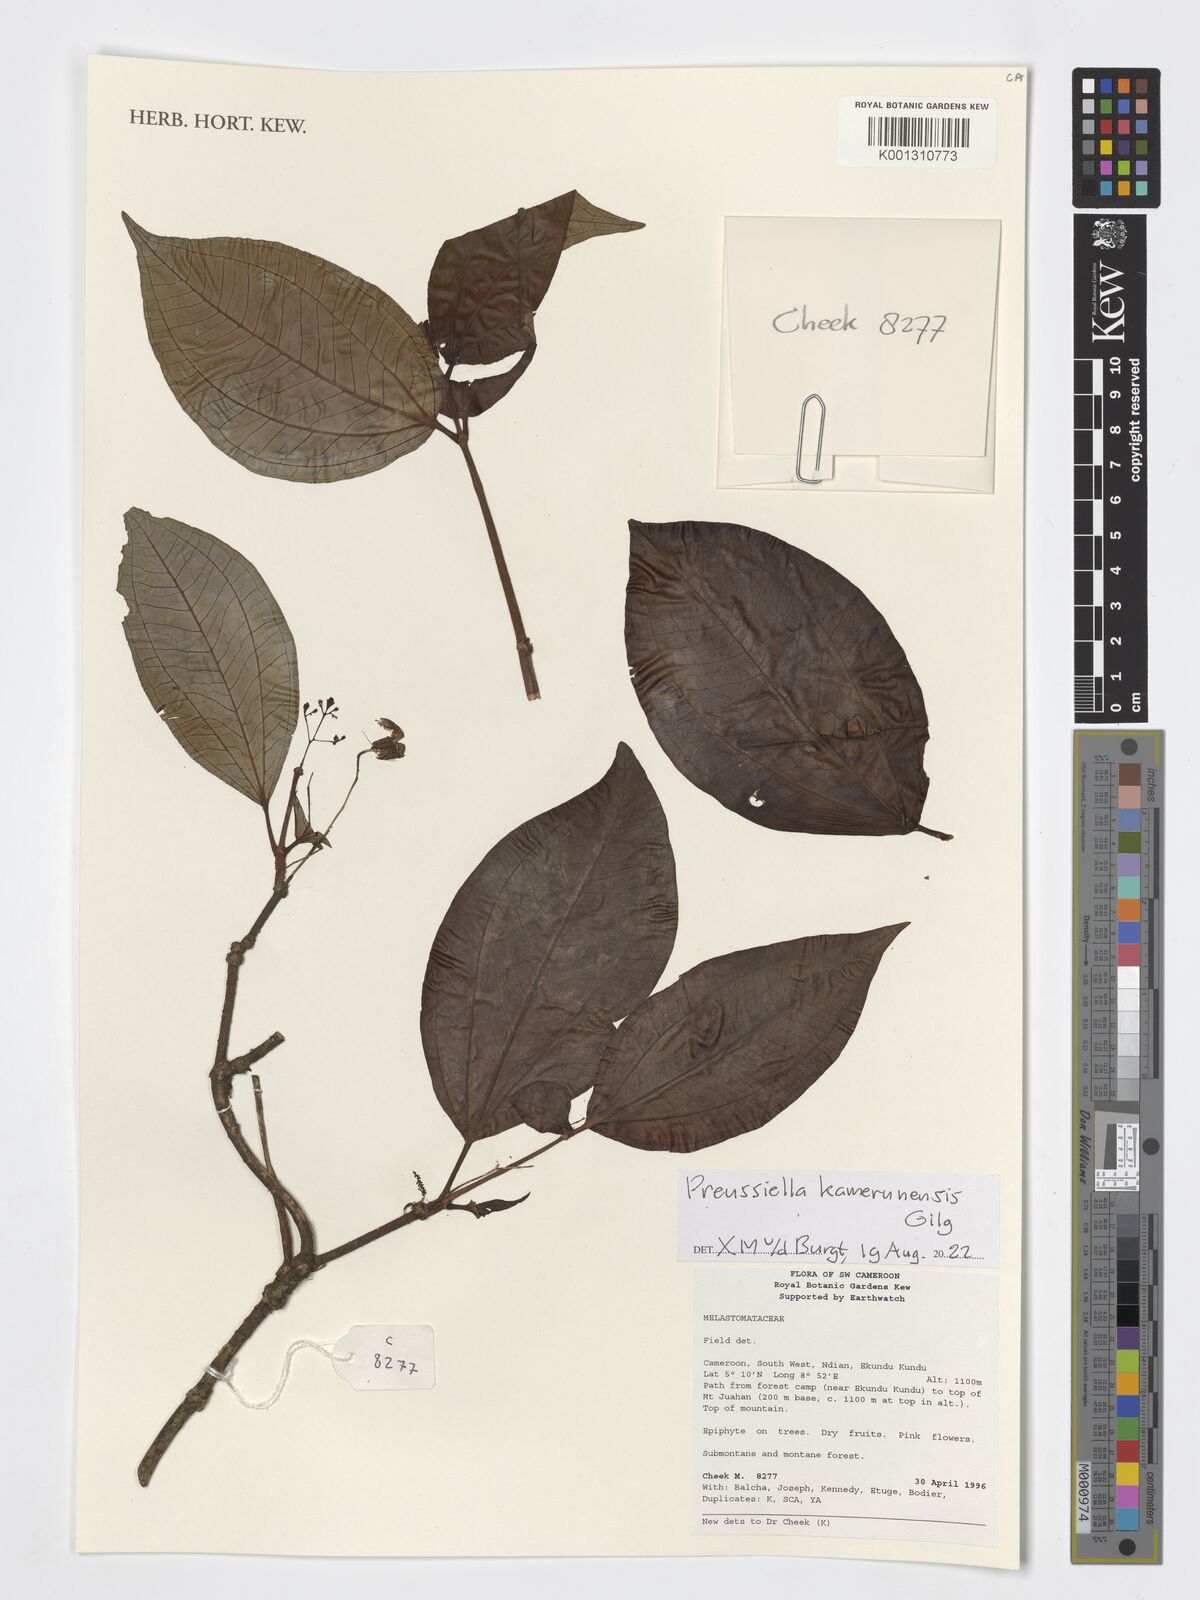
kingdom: Plantae
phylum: Tracheophyta
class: Magnoliopsida
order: Myrtales
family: Melastomataceae
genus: Preussiella
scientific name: Preussiella kamerunensis
